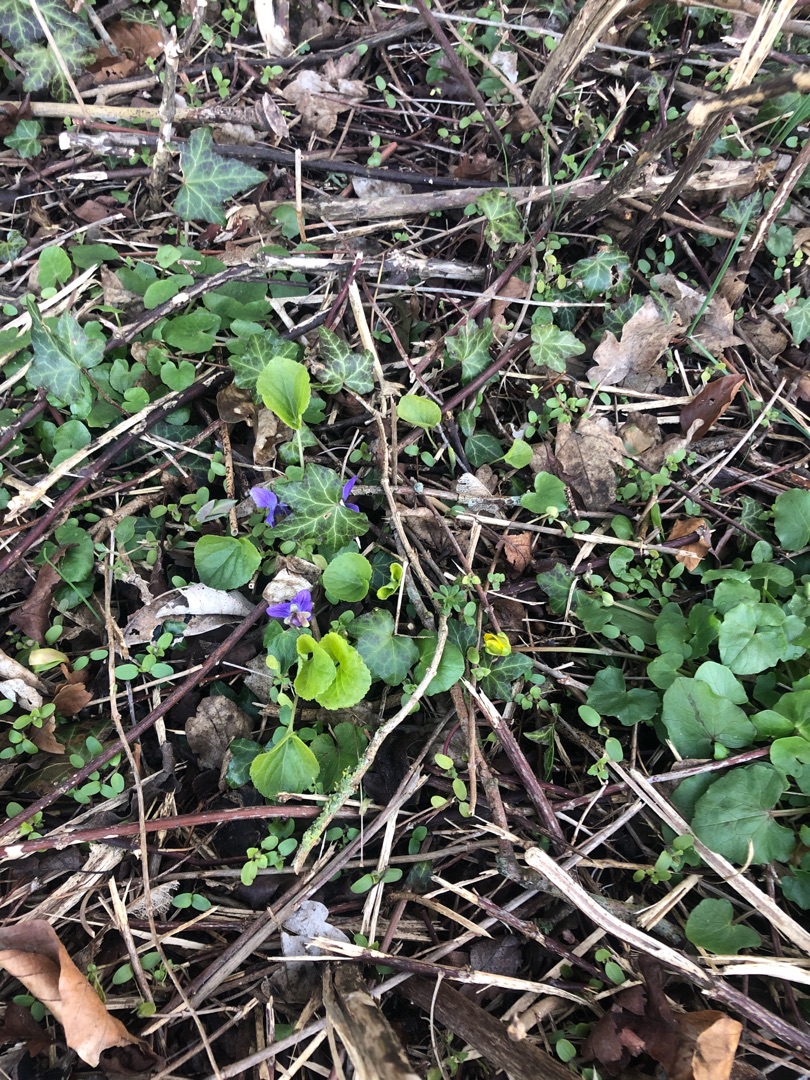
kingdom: Plantae
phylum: Tracheophyta
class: Magnoliopsida
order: Malpighiales
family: Violaceae
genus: Viola
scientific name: Viola odorata
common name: Marts-viol
